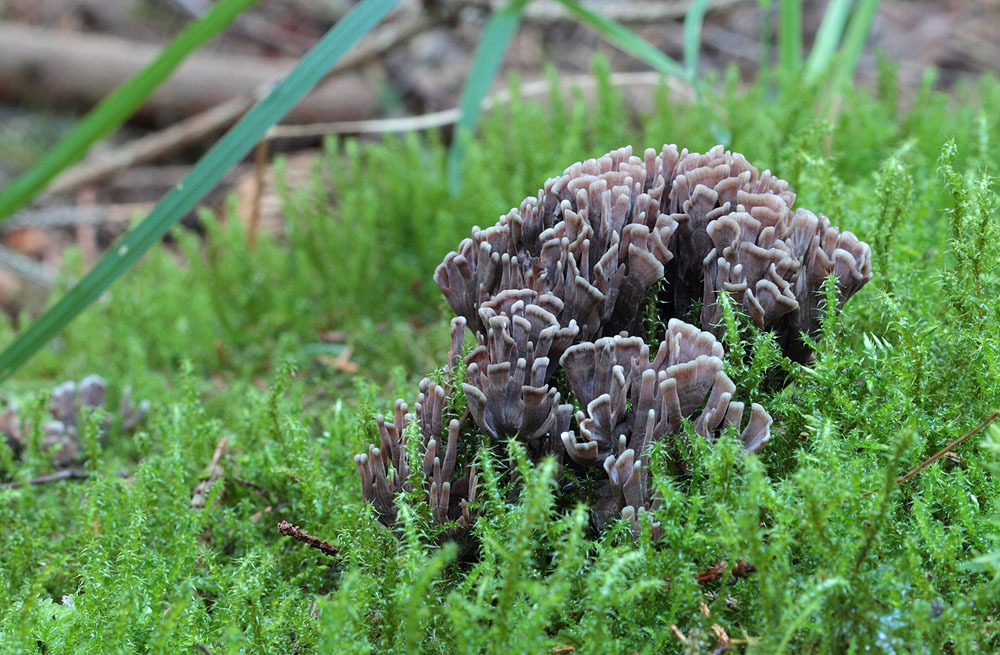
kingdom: Fungi
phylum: Basidiomycota
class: Agaricomycetes
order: Thelephorales
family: Thelephoraceae
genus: Thelephora
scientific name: Thelephora palmata
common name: grenet frynsesvamp
